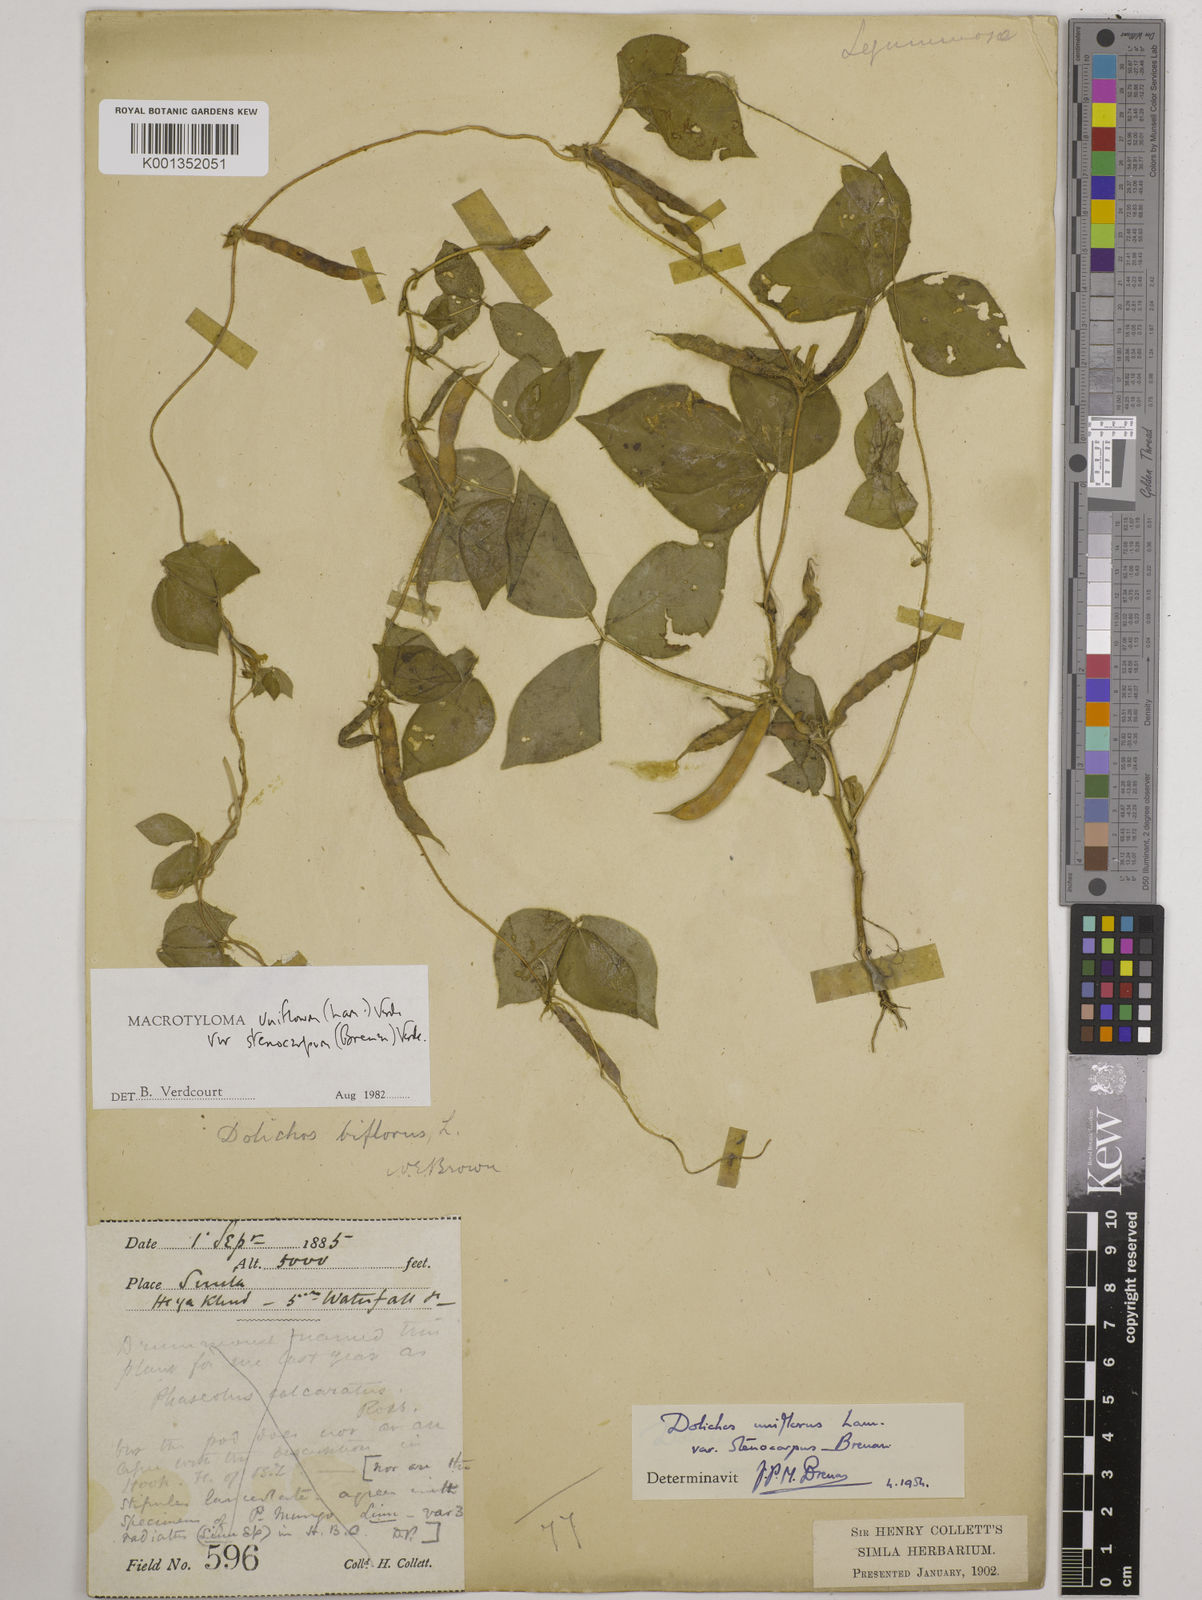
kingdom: Plantae
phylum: Tracheophyta
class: Magnoliopsida
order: Fabales
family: Fabaceae
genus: Macrotyloma
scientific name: Macrotyloma
